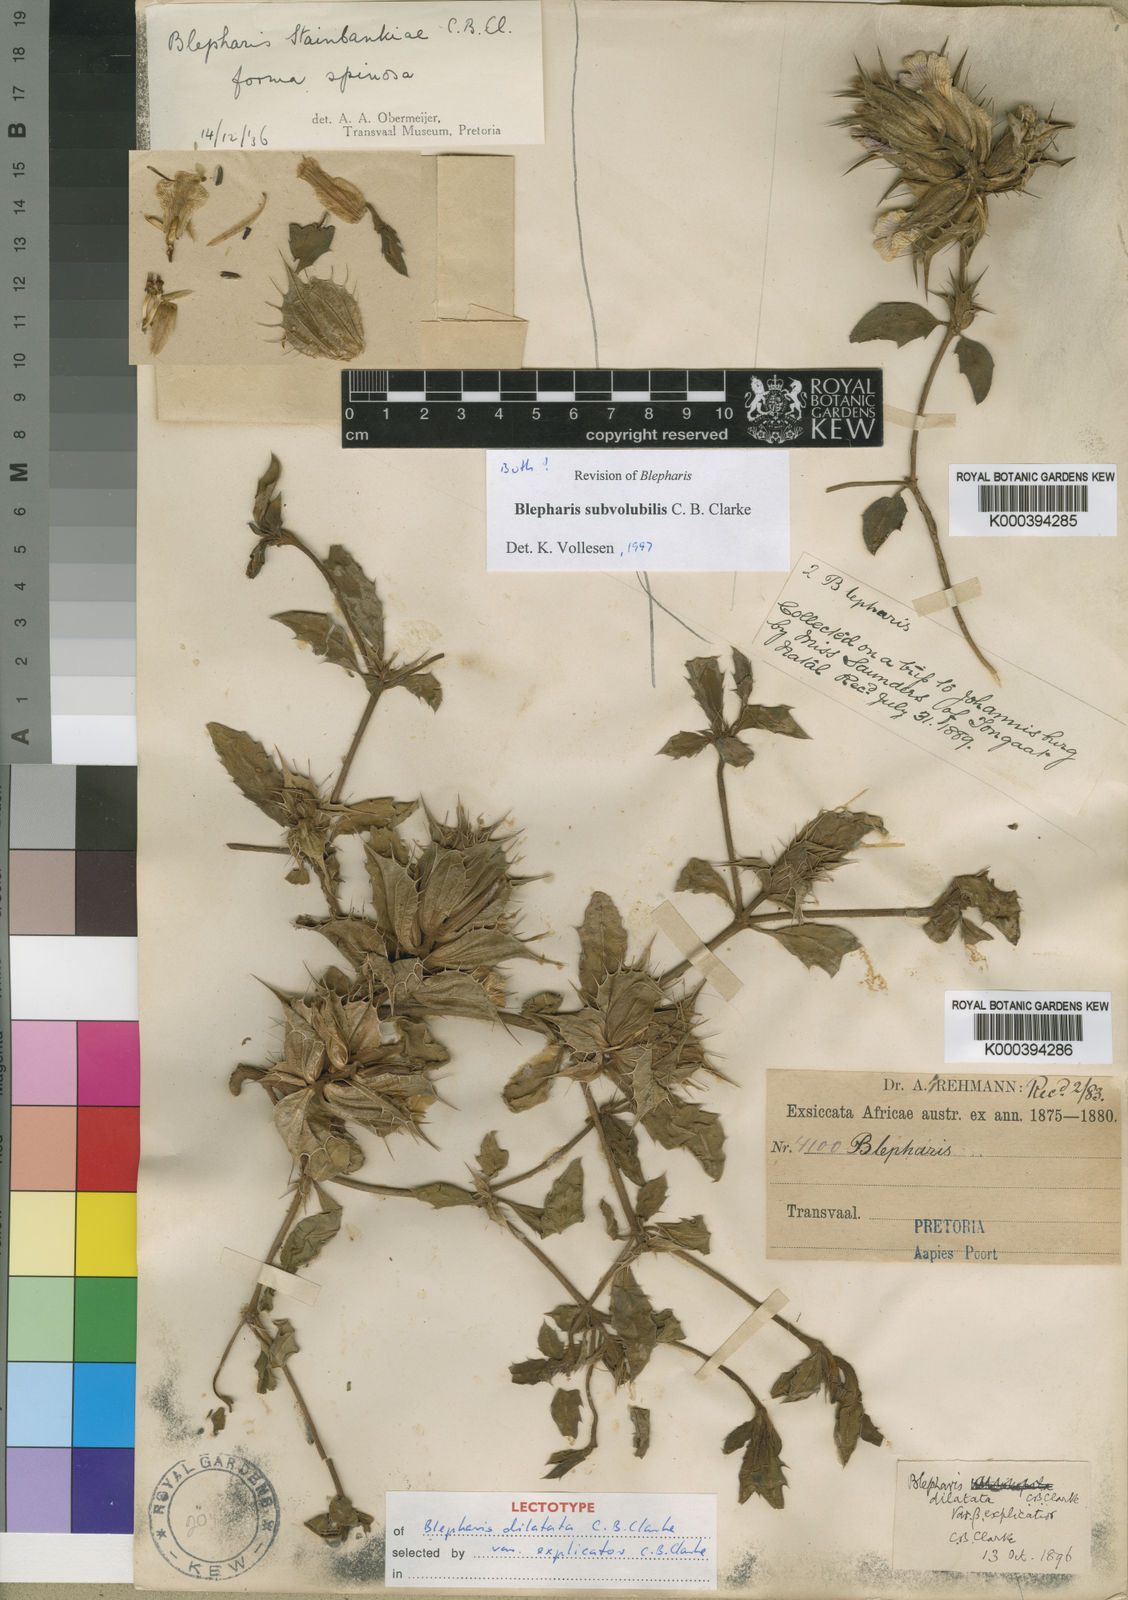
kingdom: Plantae
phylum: Tracheophyta
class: Magnoliopsida
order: Lamiales
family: Acanthaceae
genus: Blepharis
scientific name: Blepharis subvolubilis
